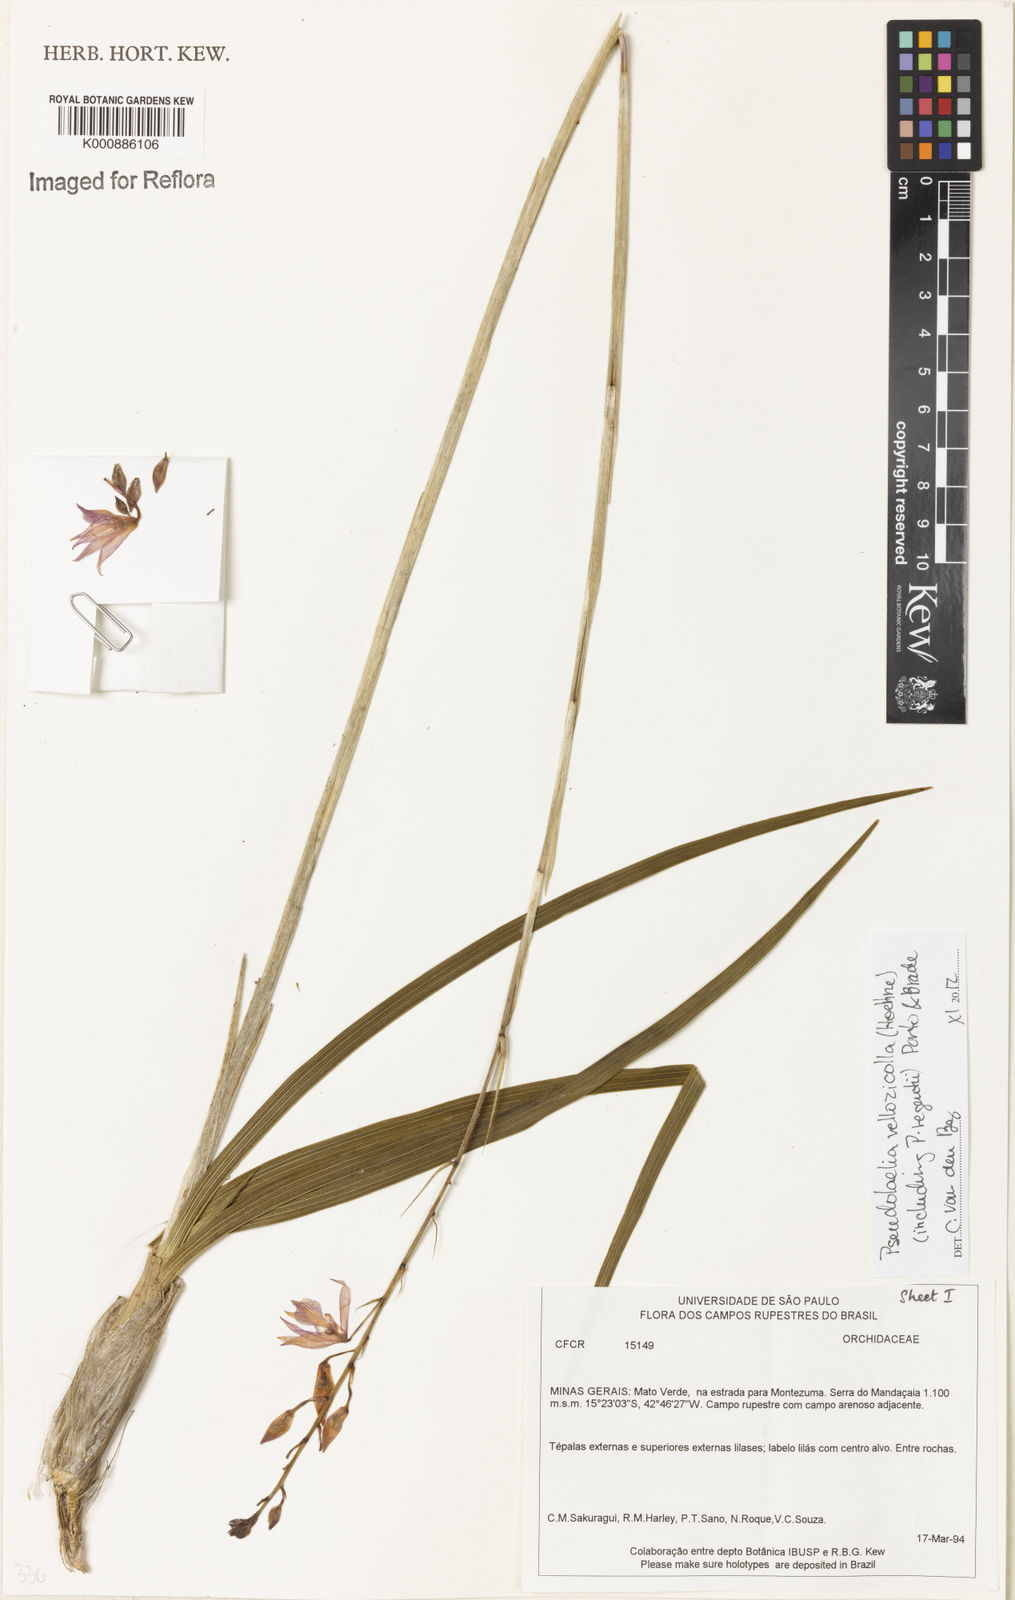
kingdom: Plantae
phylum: Tracheophyta
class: Liliopsida
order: Asparagales
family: Orchidaceae
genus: Pseudolaelia
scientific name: Pseudolaelia vellozicola
